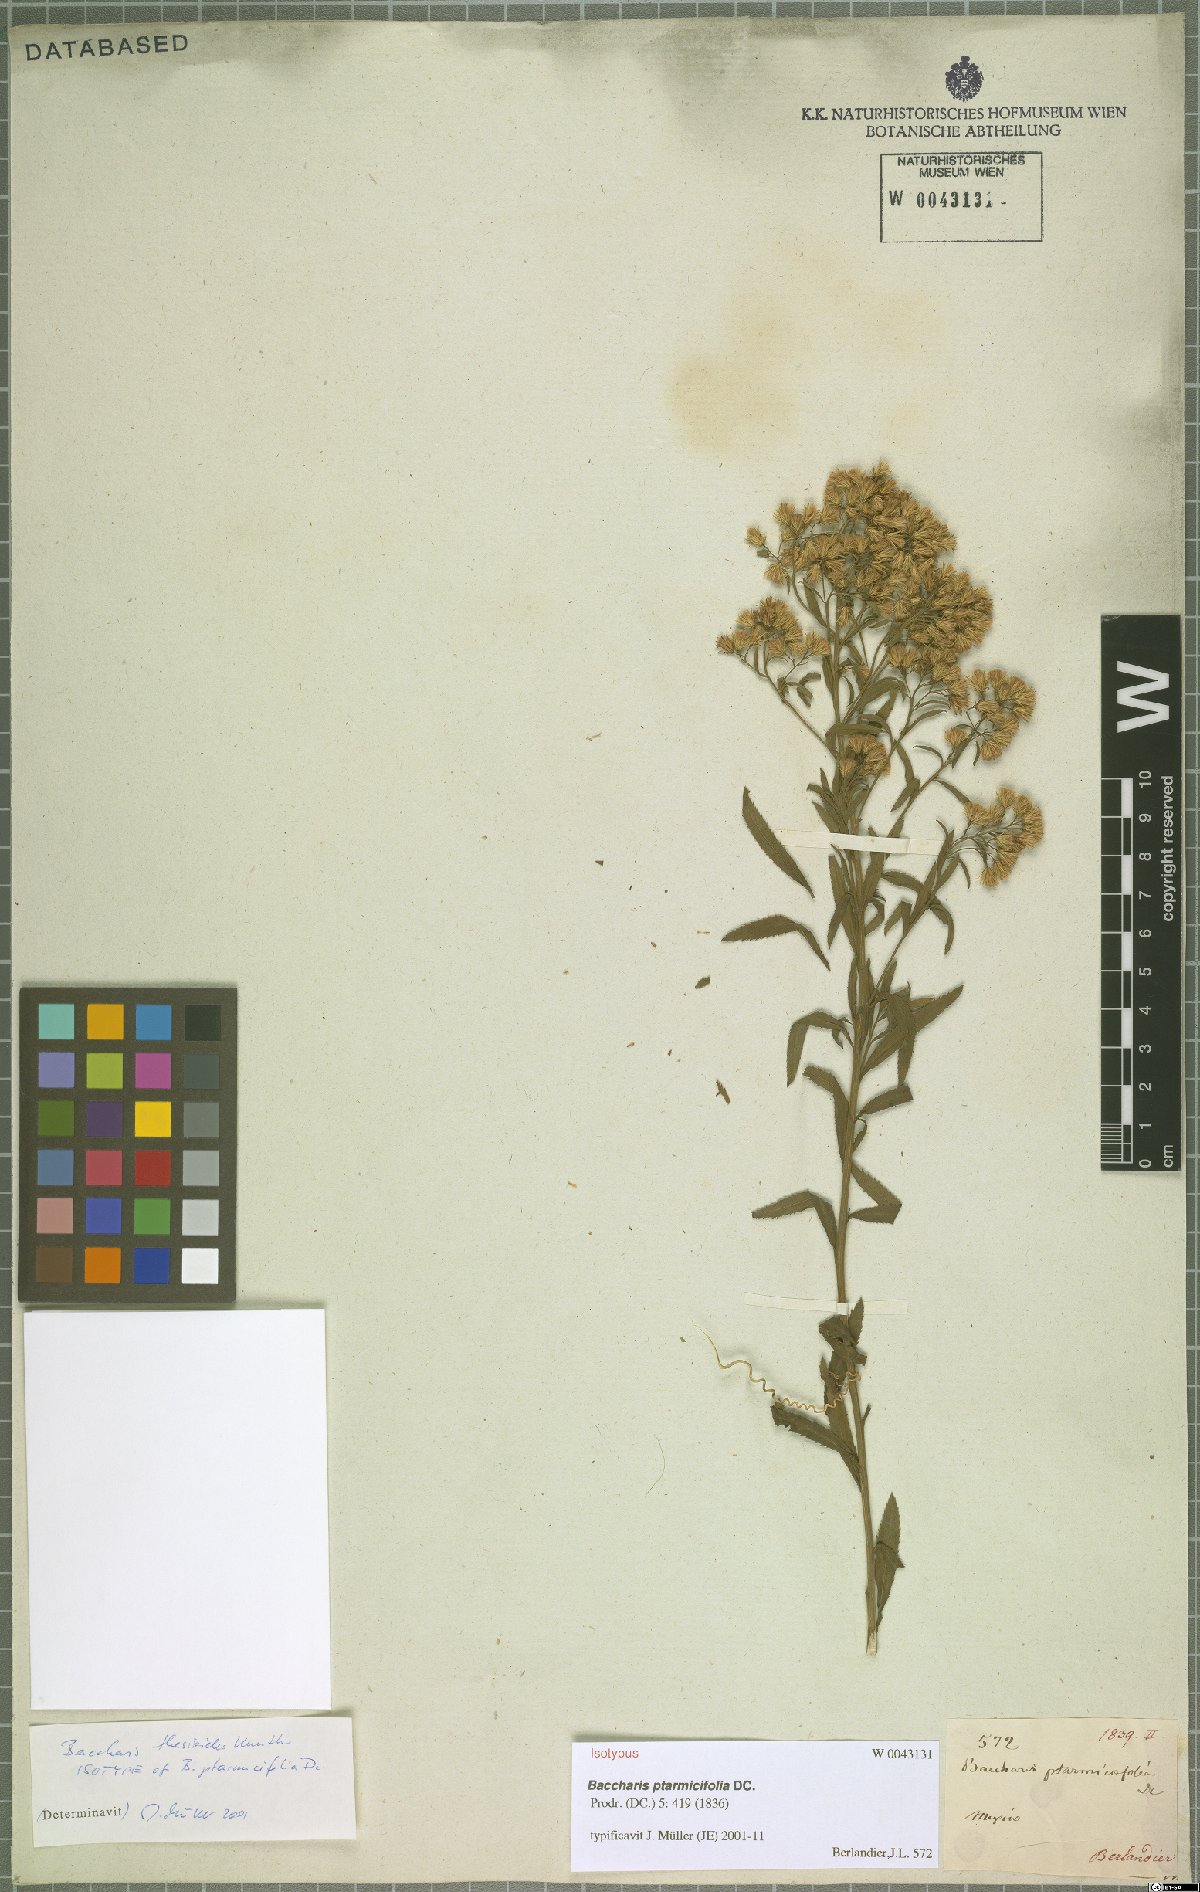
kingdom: Plantae
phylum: Tracheophyta
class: Magnoliopsida
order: Asterales
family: Asteraceae
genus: Baccharis
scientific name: Baccharis ptarmicifolia
